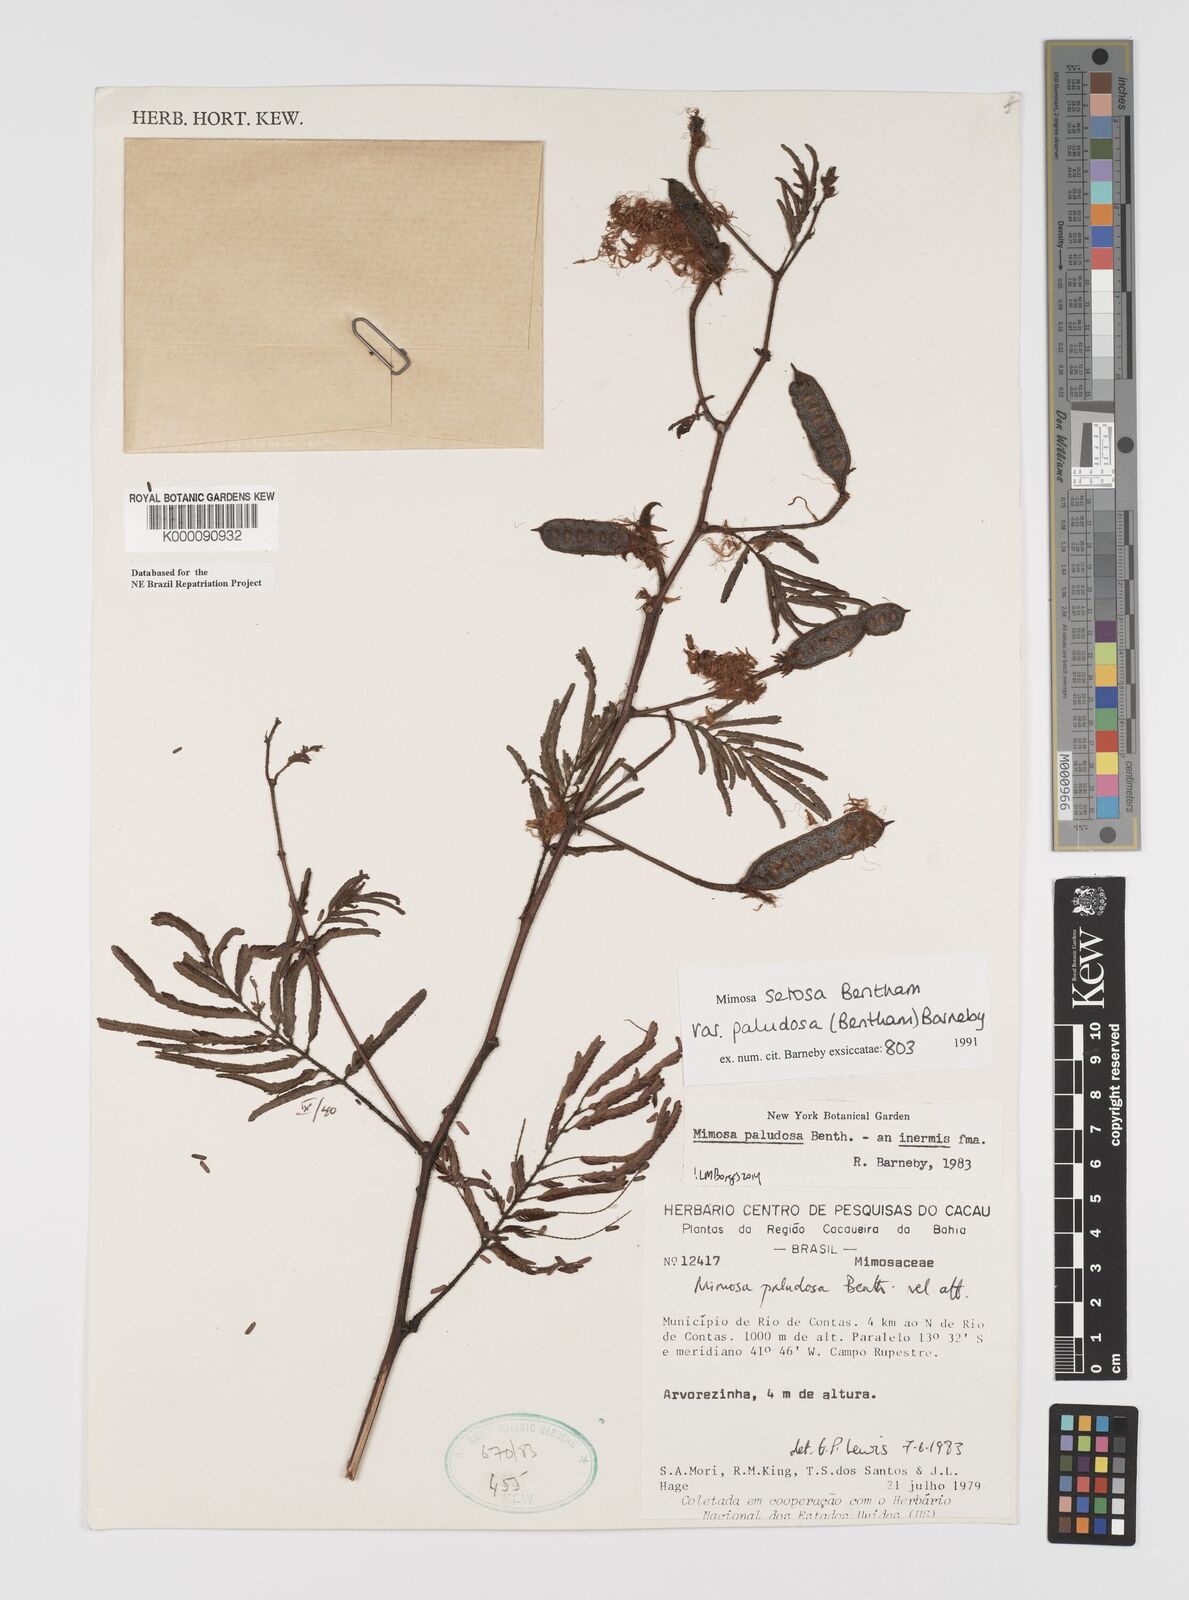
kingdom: Plantae
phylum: Tracheophyta
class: Magnoliopsida
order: Fabales
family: Fabaceae
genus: Mimosa
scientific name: Mimosa paludosa
